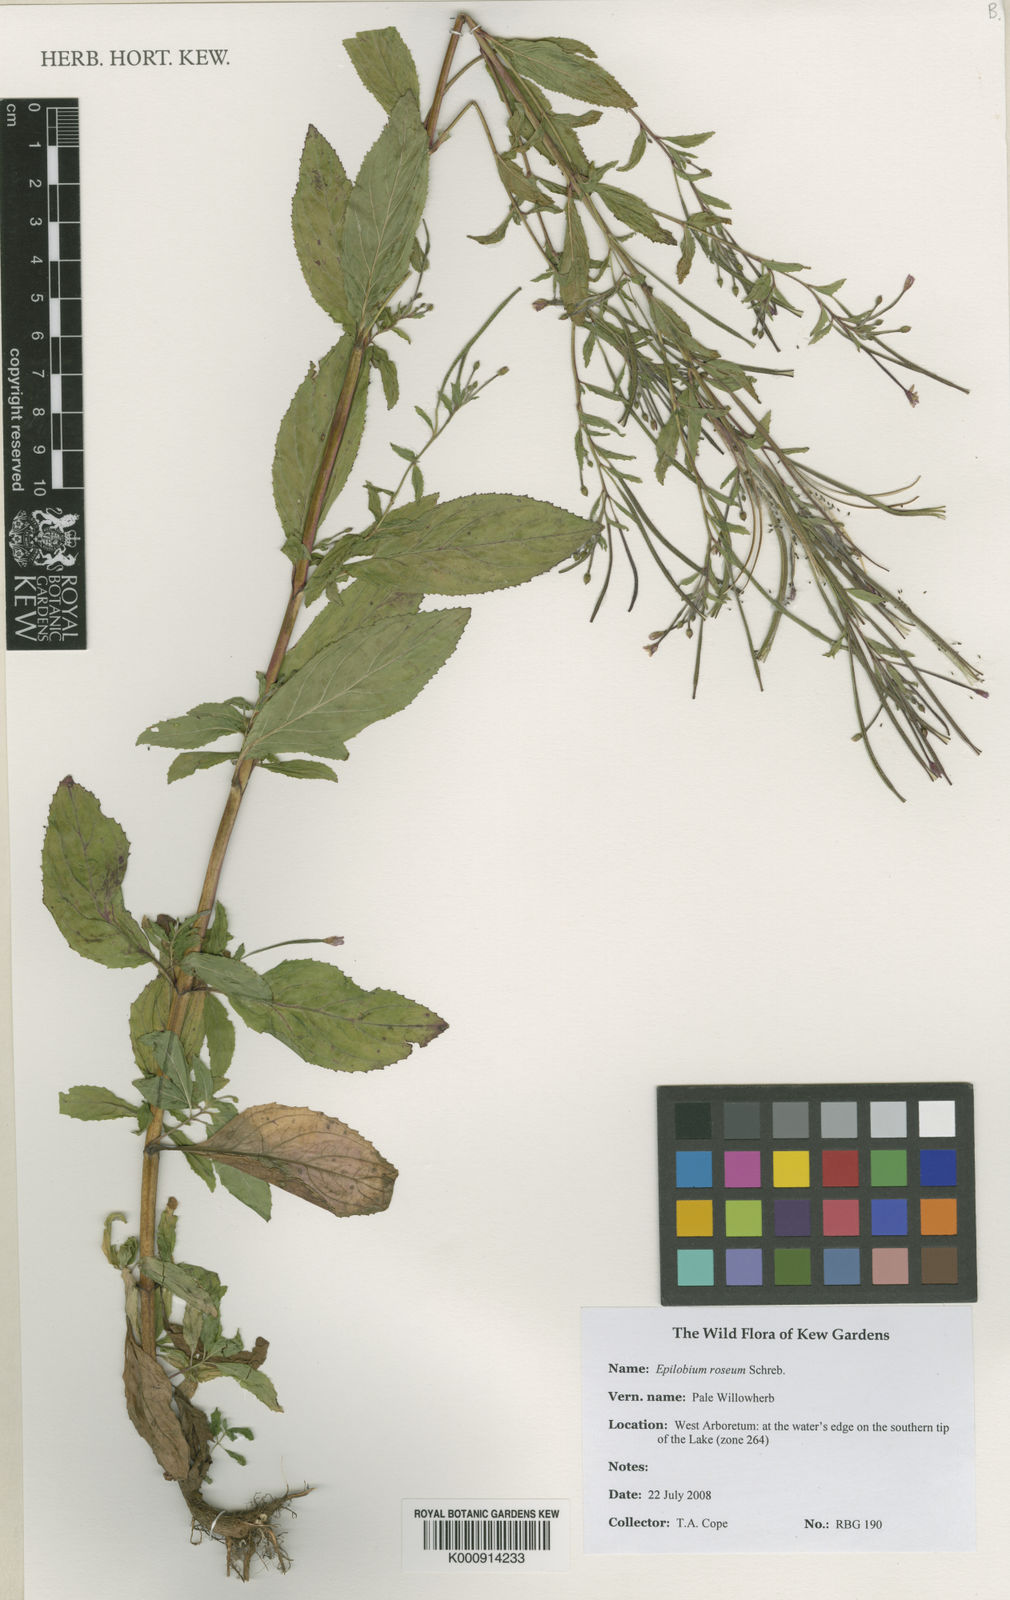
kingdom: Plantae
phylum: Tracheophyta
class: Magnoliopsida
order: Myrtales
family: Onagraceae
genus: Epilobium
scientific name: Epilobium roseum
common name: Pale willowherb
